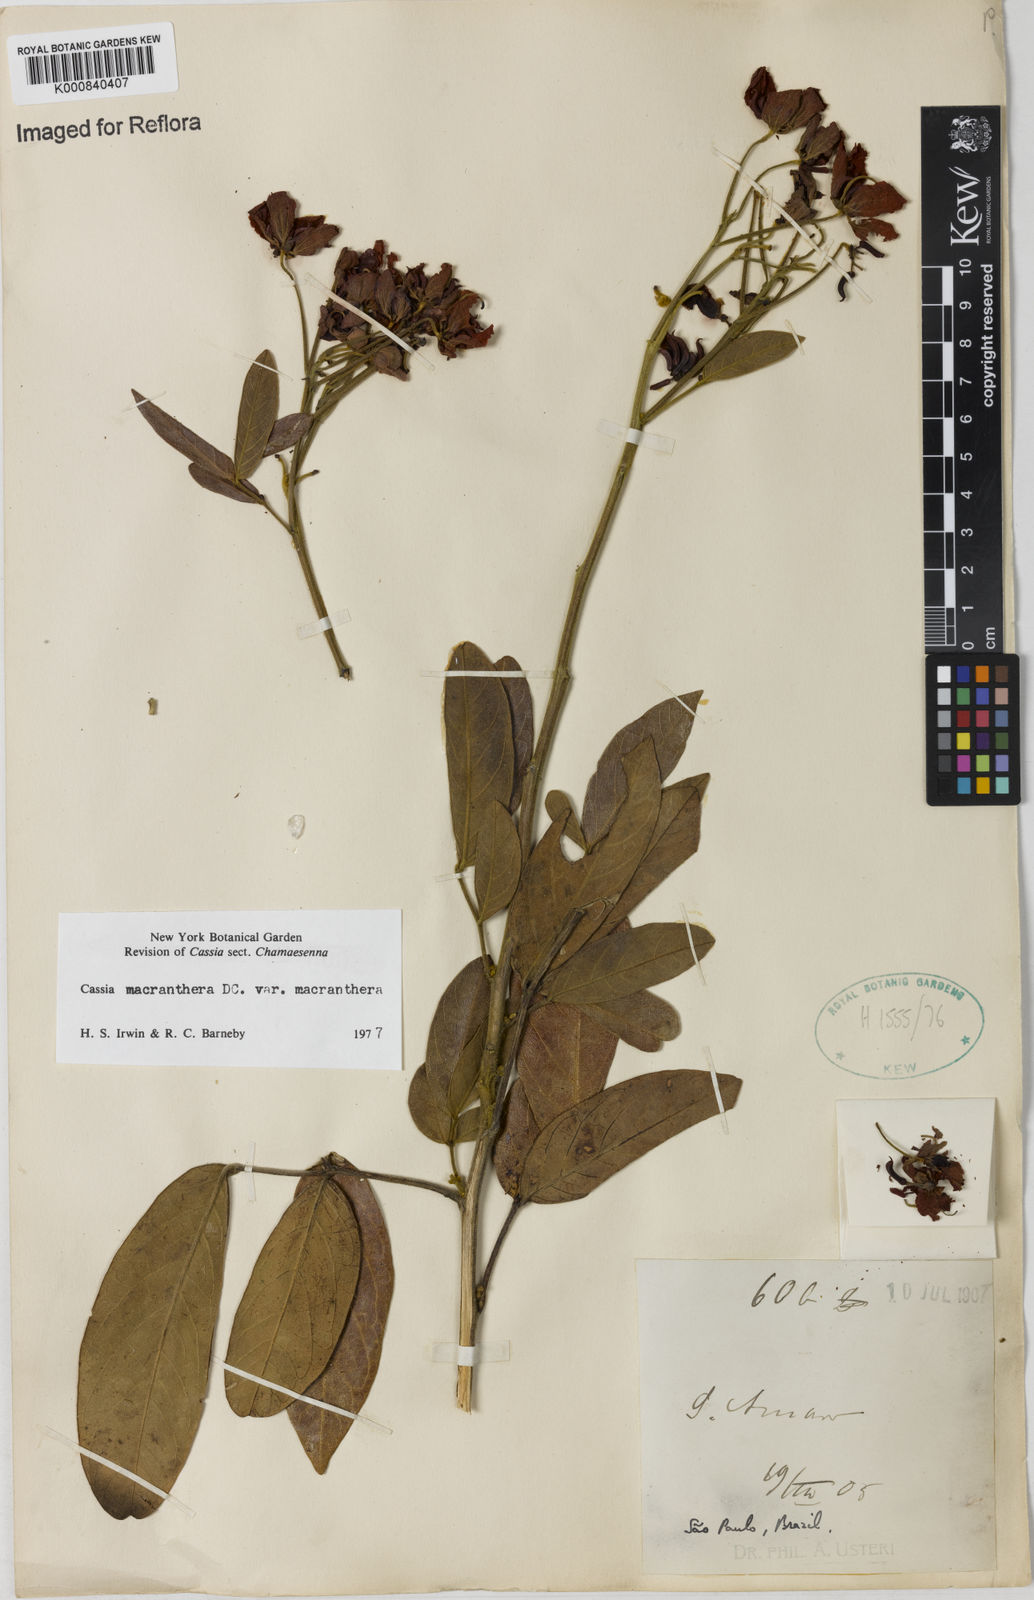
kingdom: Plantae
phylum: Tracheophyta
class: Magnoliopsida
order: Fabales
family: Fabaceae
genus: Senna
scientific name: Senna macranthera
